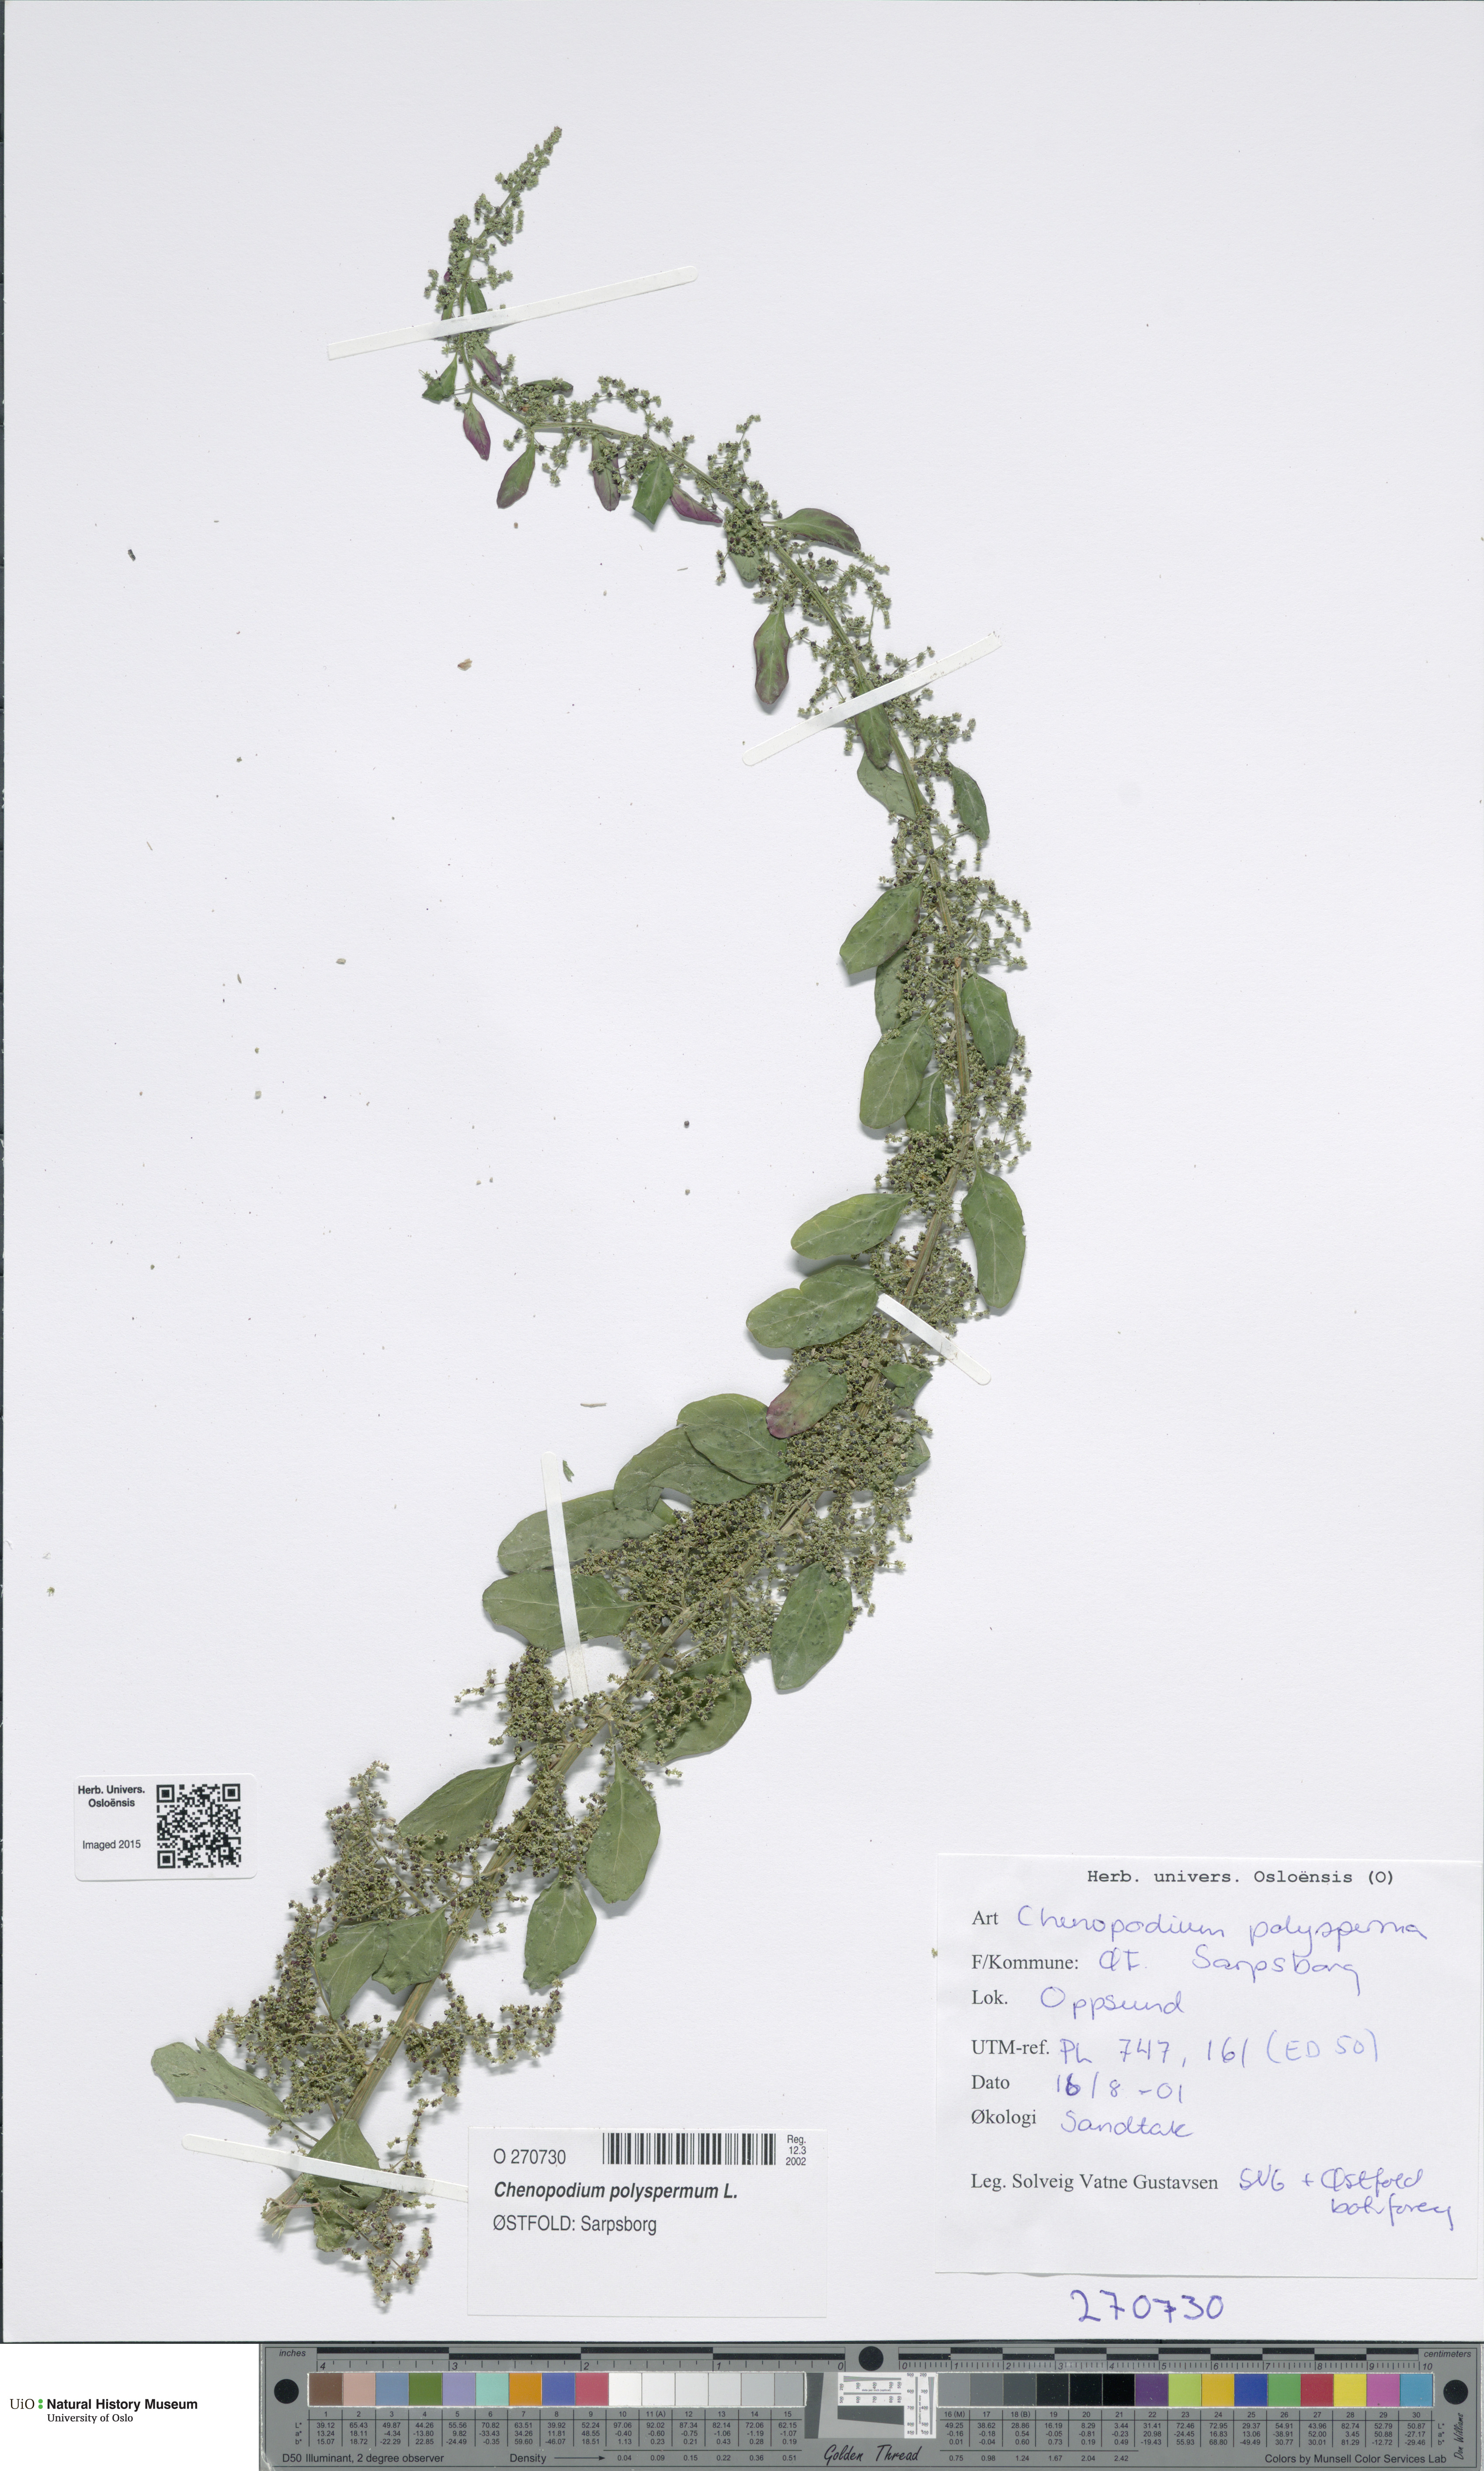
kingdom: Plantae
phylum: Tracheophyta
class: Magnoliopsida
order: Caryophyllales
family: Amaranthaceae
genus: Lipandra
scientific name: Lipandra polysperma
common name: Many-seed goosefoot
